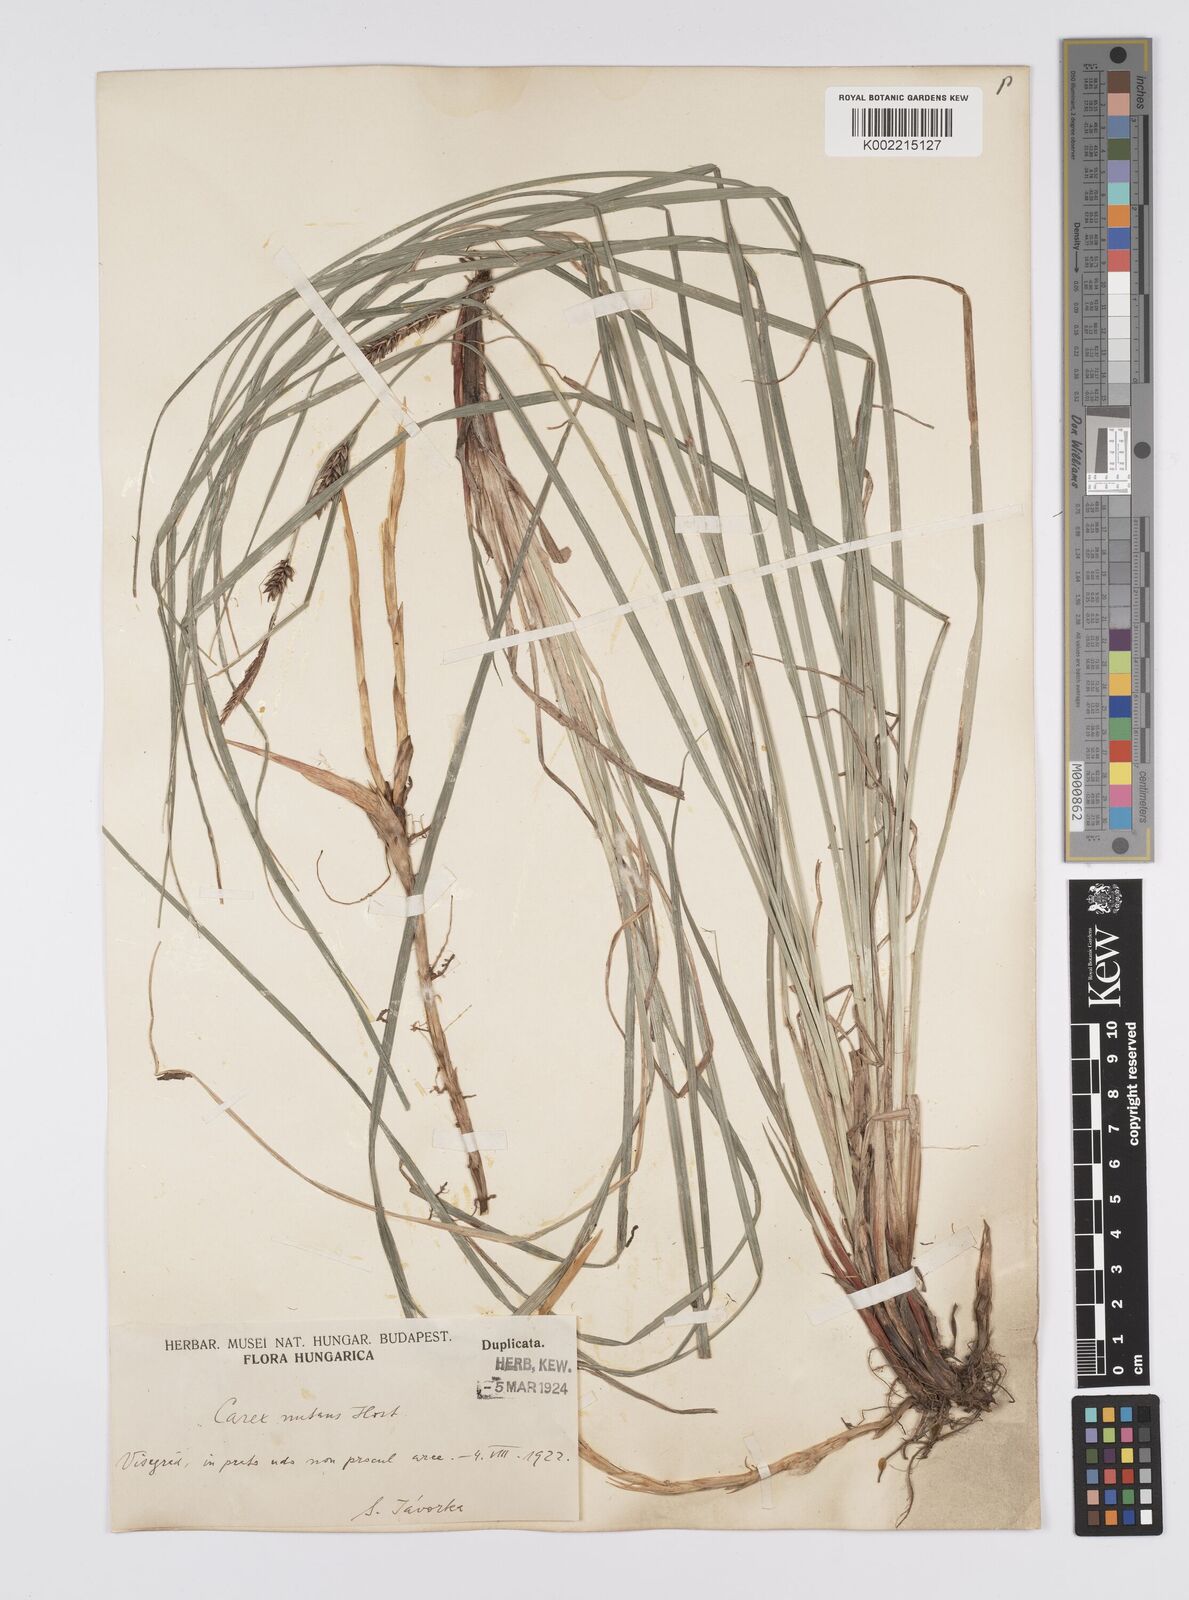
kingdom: Plantae
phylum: Tracheophyta
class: Liliopsida
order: Poales
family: Cyperaceae
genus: Carex
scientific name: Carex melanostachya
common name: Black-spiked sedge
